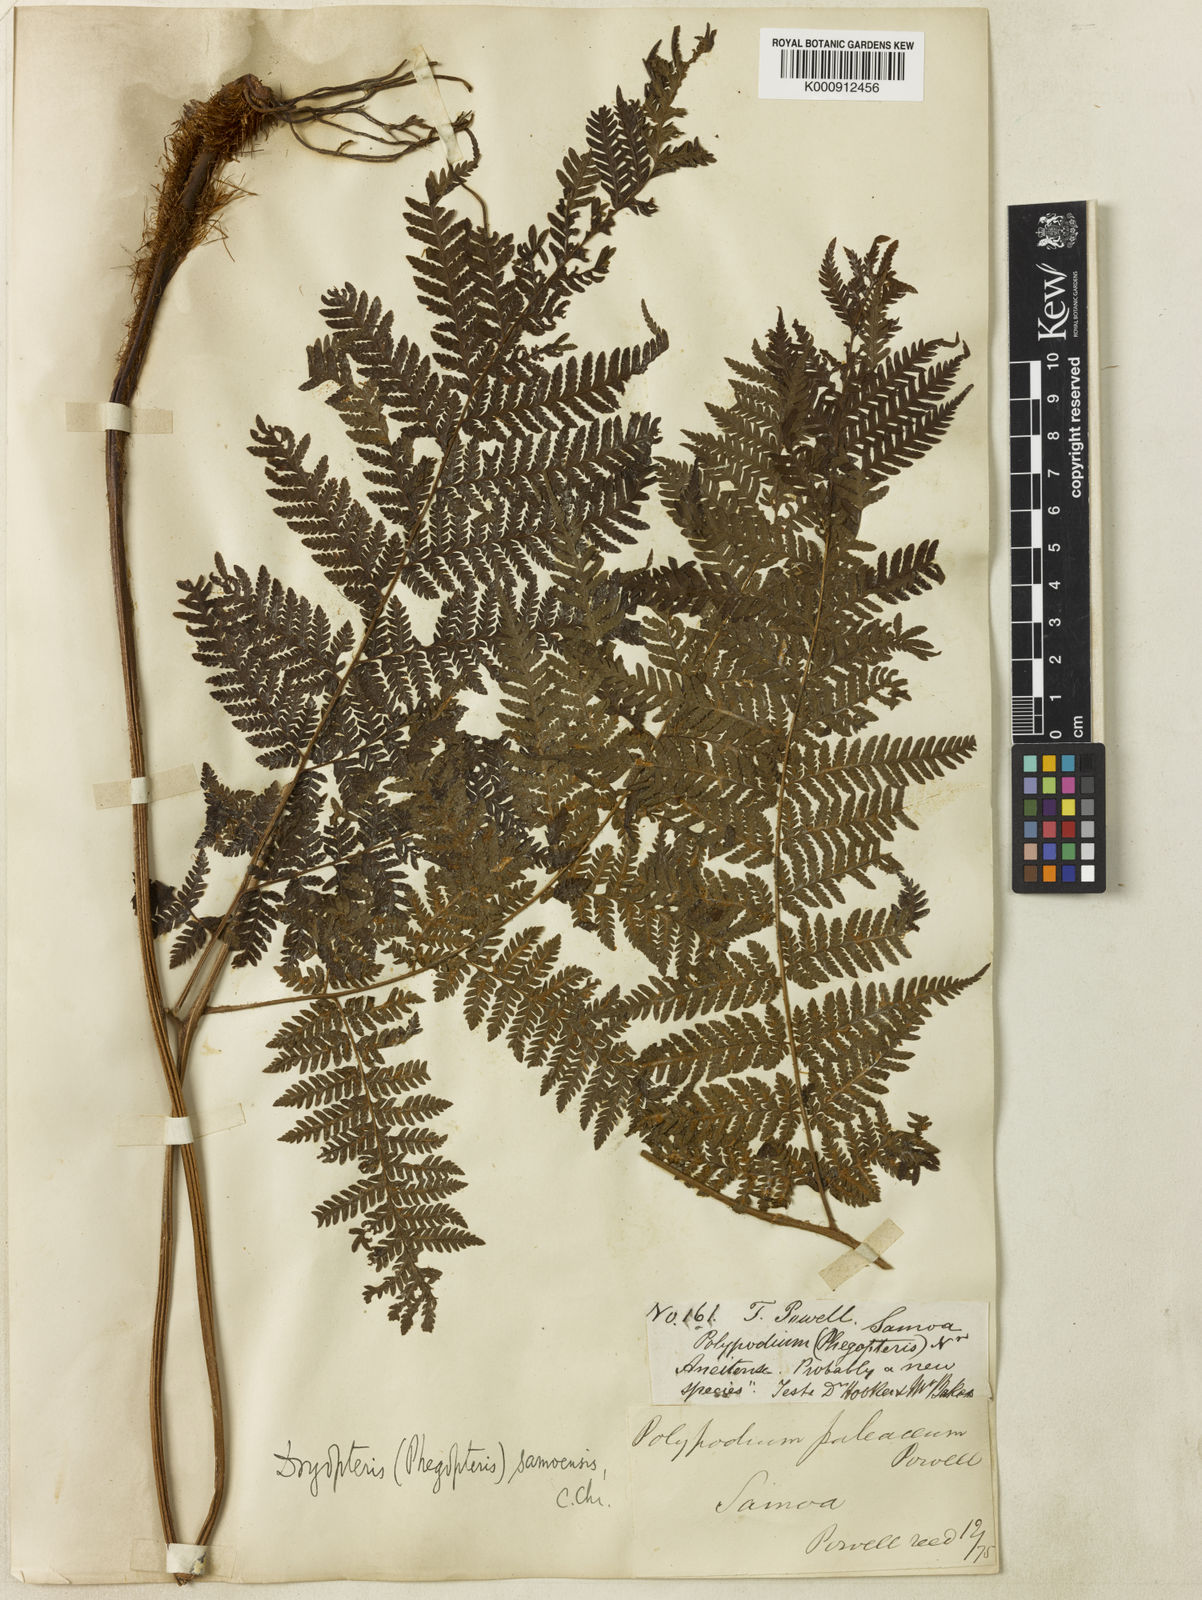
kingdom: Plantae
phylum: Tracheophyta
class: Polypodiopsida
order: Polypodiales
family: Dryopteridaceae
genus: Ctenitis
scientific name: Ctenitis samoensis
